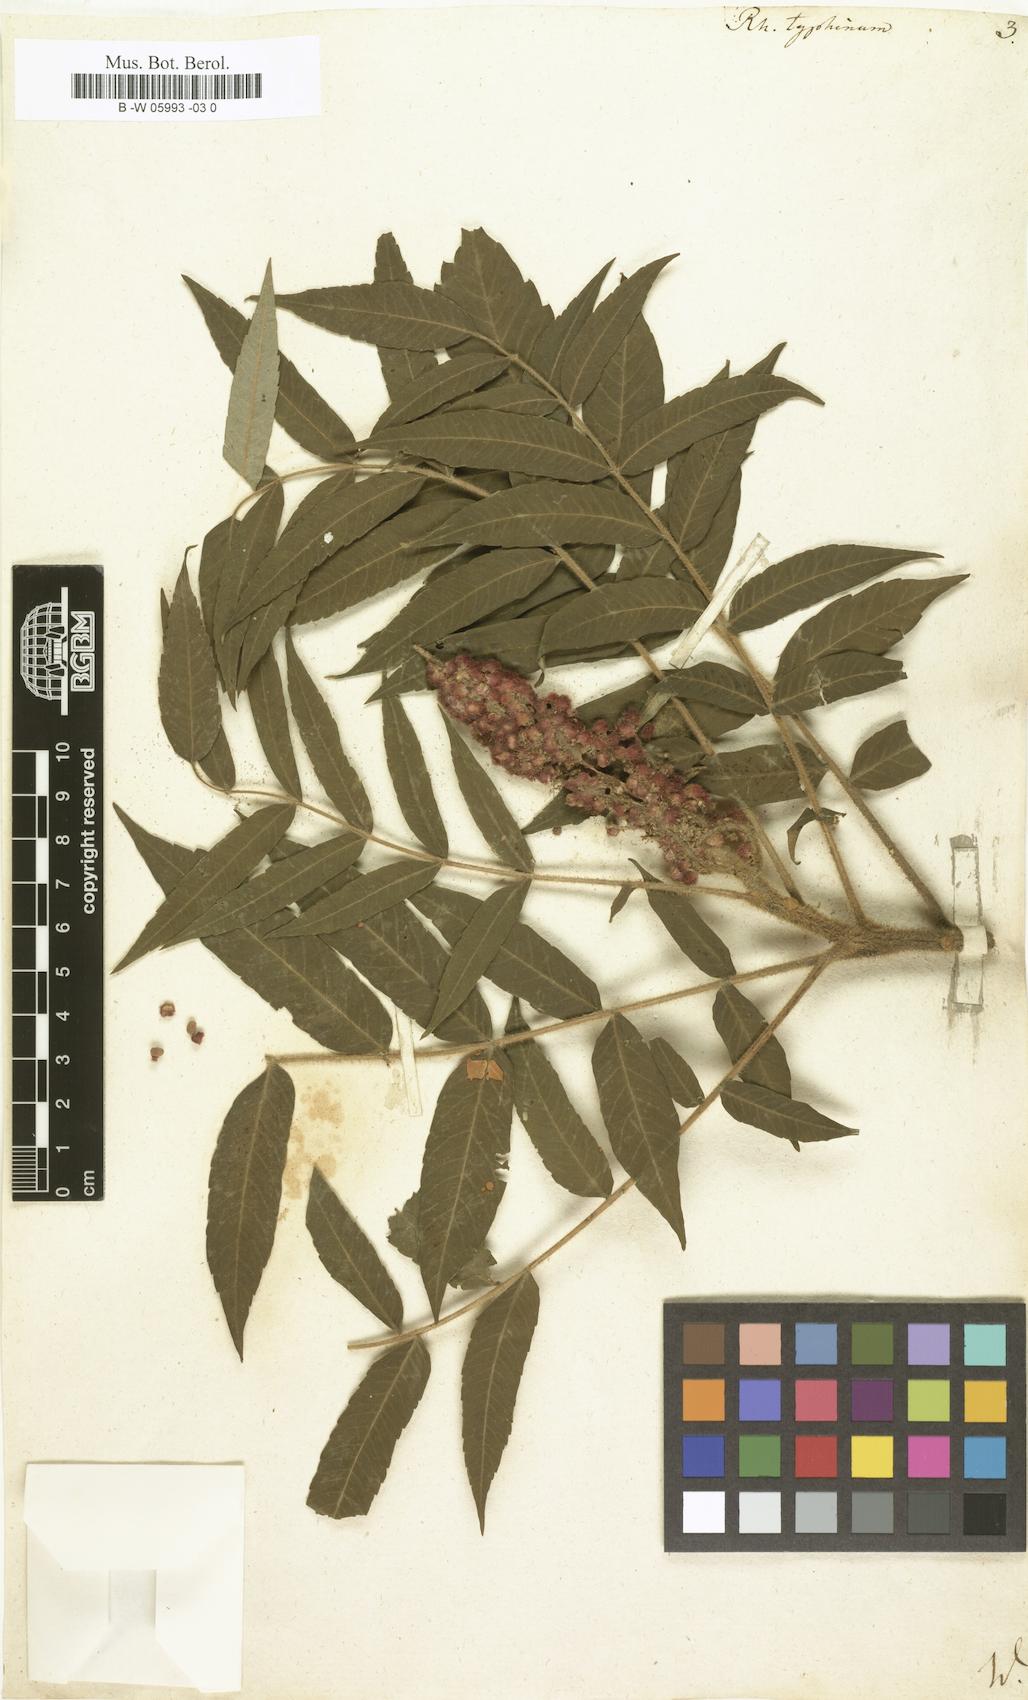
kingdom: Plantae
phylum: Tracheophyta
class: Magnoliopsida
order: Sapindales
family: Anacardiaceae
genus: Rhus
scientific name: Rhus typhina
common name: Staghorn sumac
